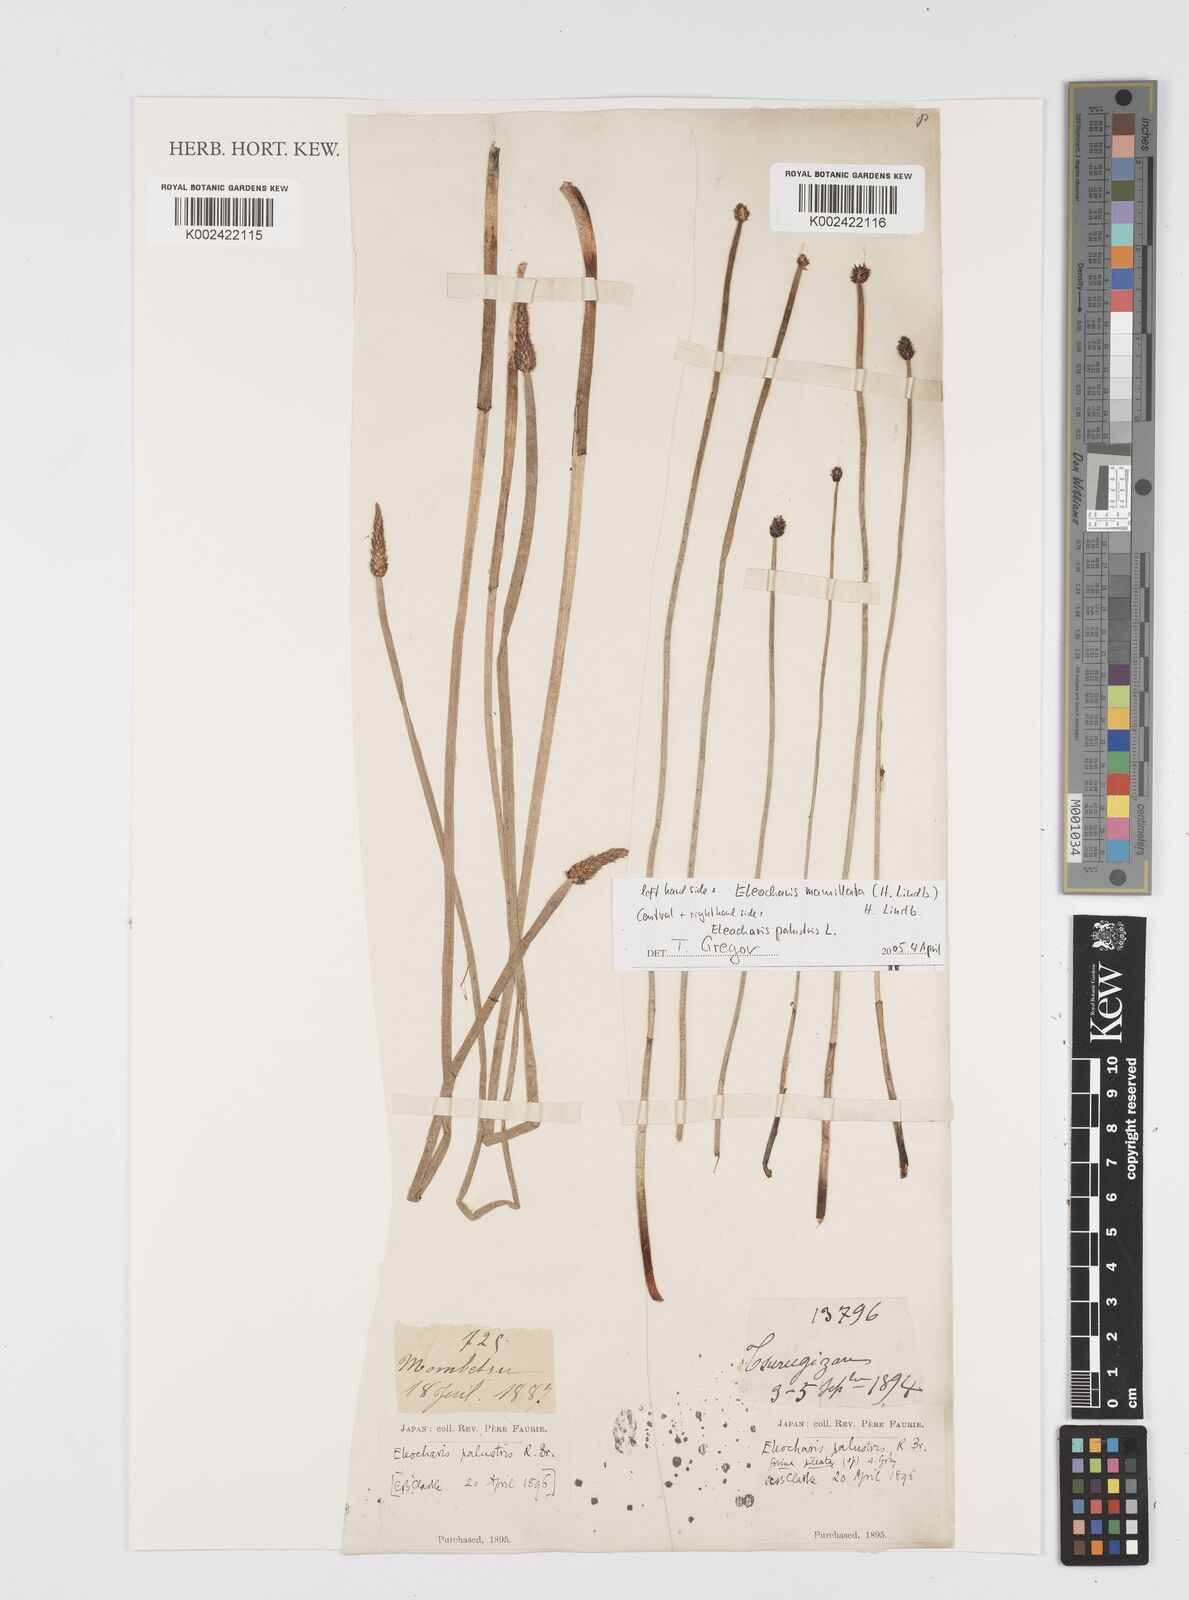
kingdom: Plantae
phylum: Tracheophyta
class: Liliopsida
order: Poales
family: Cyperaceae
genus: Eleocharis
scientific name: Eleocharis palustris
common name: Common spike-rush
